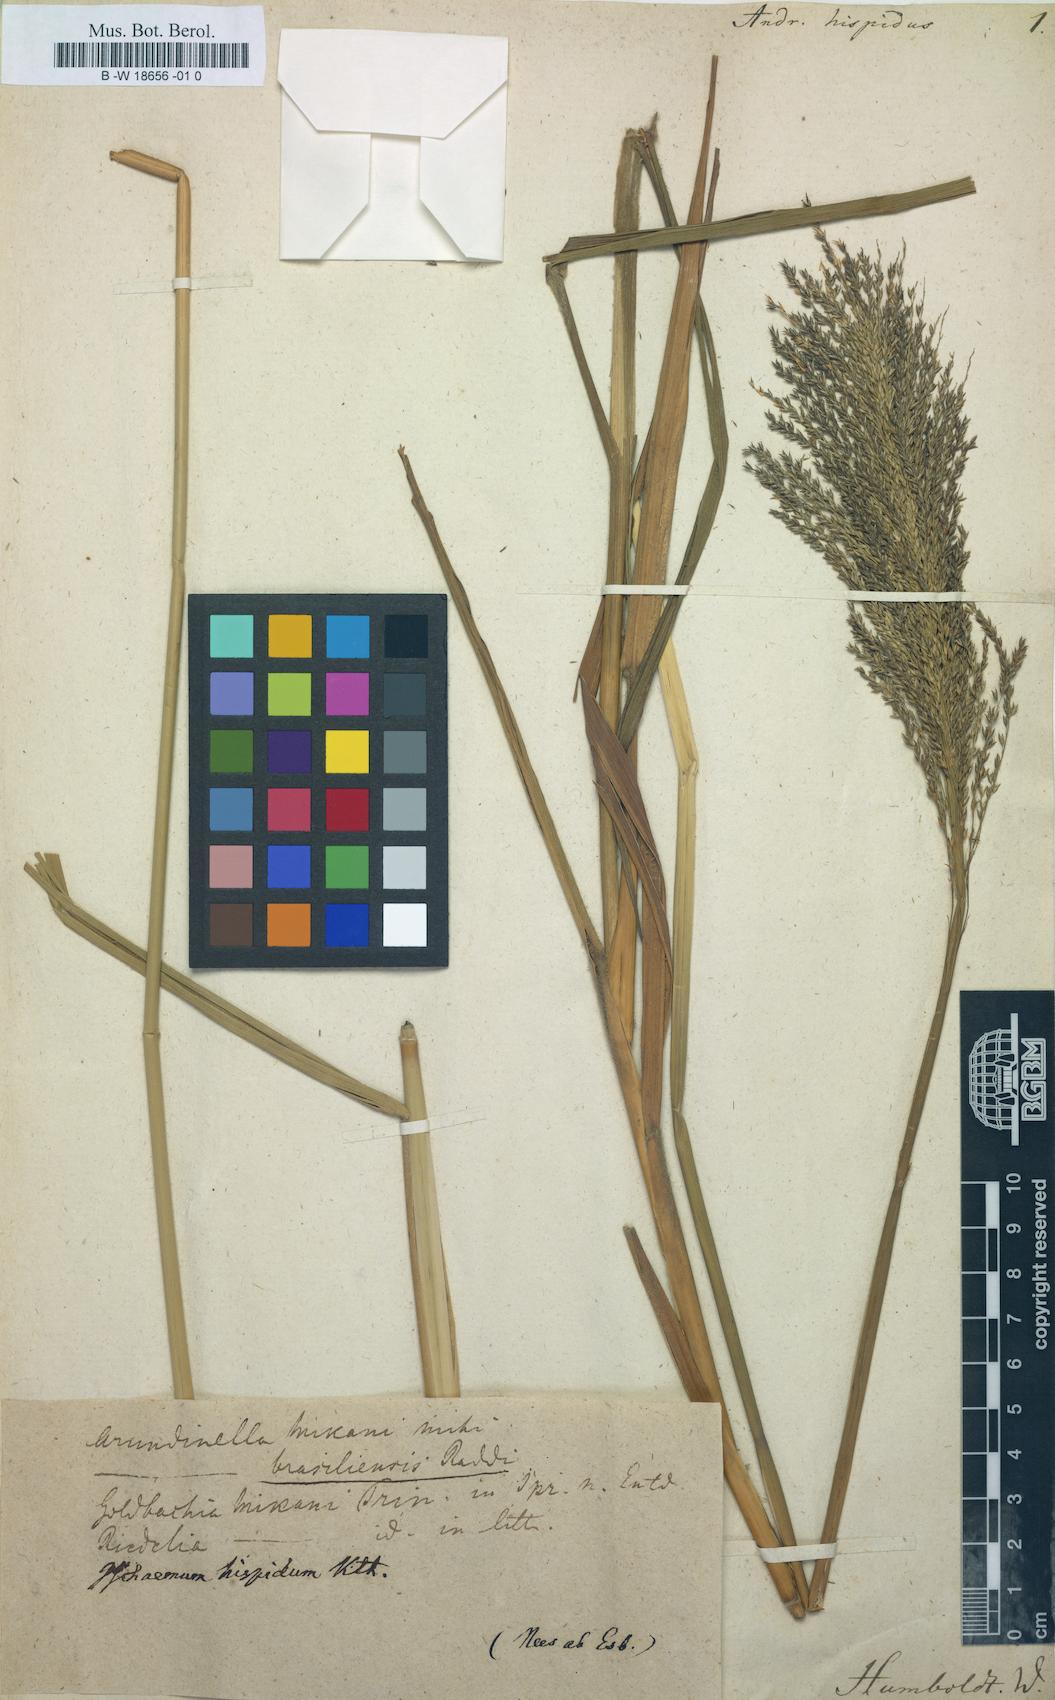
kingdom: Plantae
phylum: Tracheophyta
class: Liliopsida
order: Poales
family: Poaceae
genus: Arundinella
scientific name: Arundinella hispida
